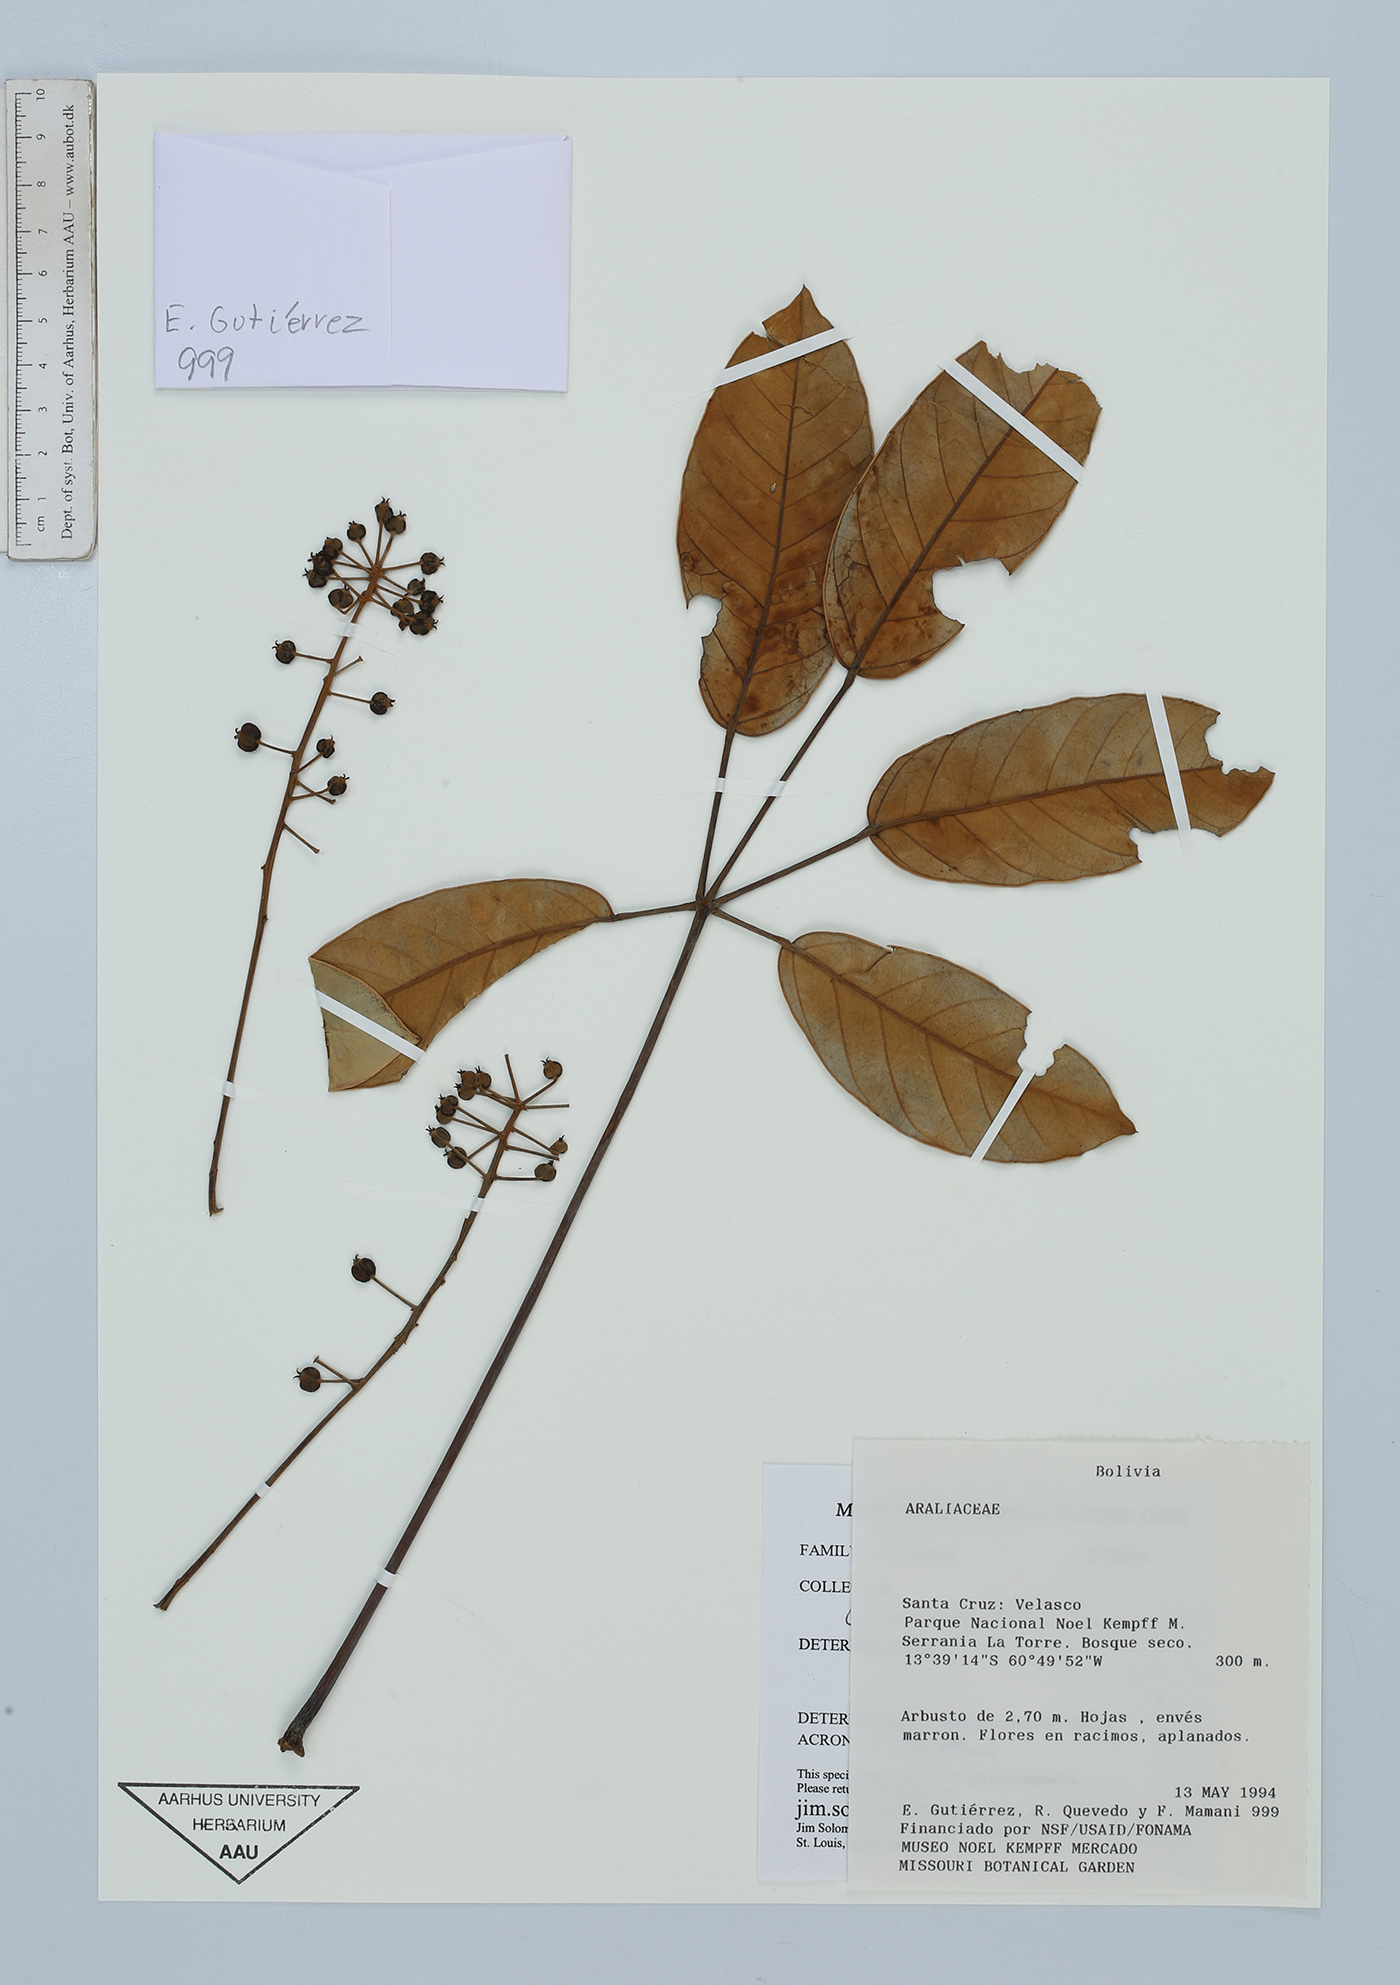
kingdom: Plantae
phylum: Tracheophyta
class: Magnoliopsida
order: Apiales
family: Araliaceae
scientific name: Araliaceae
